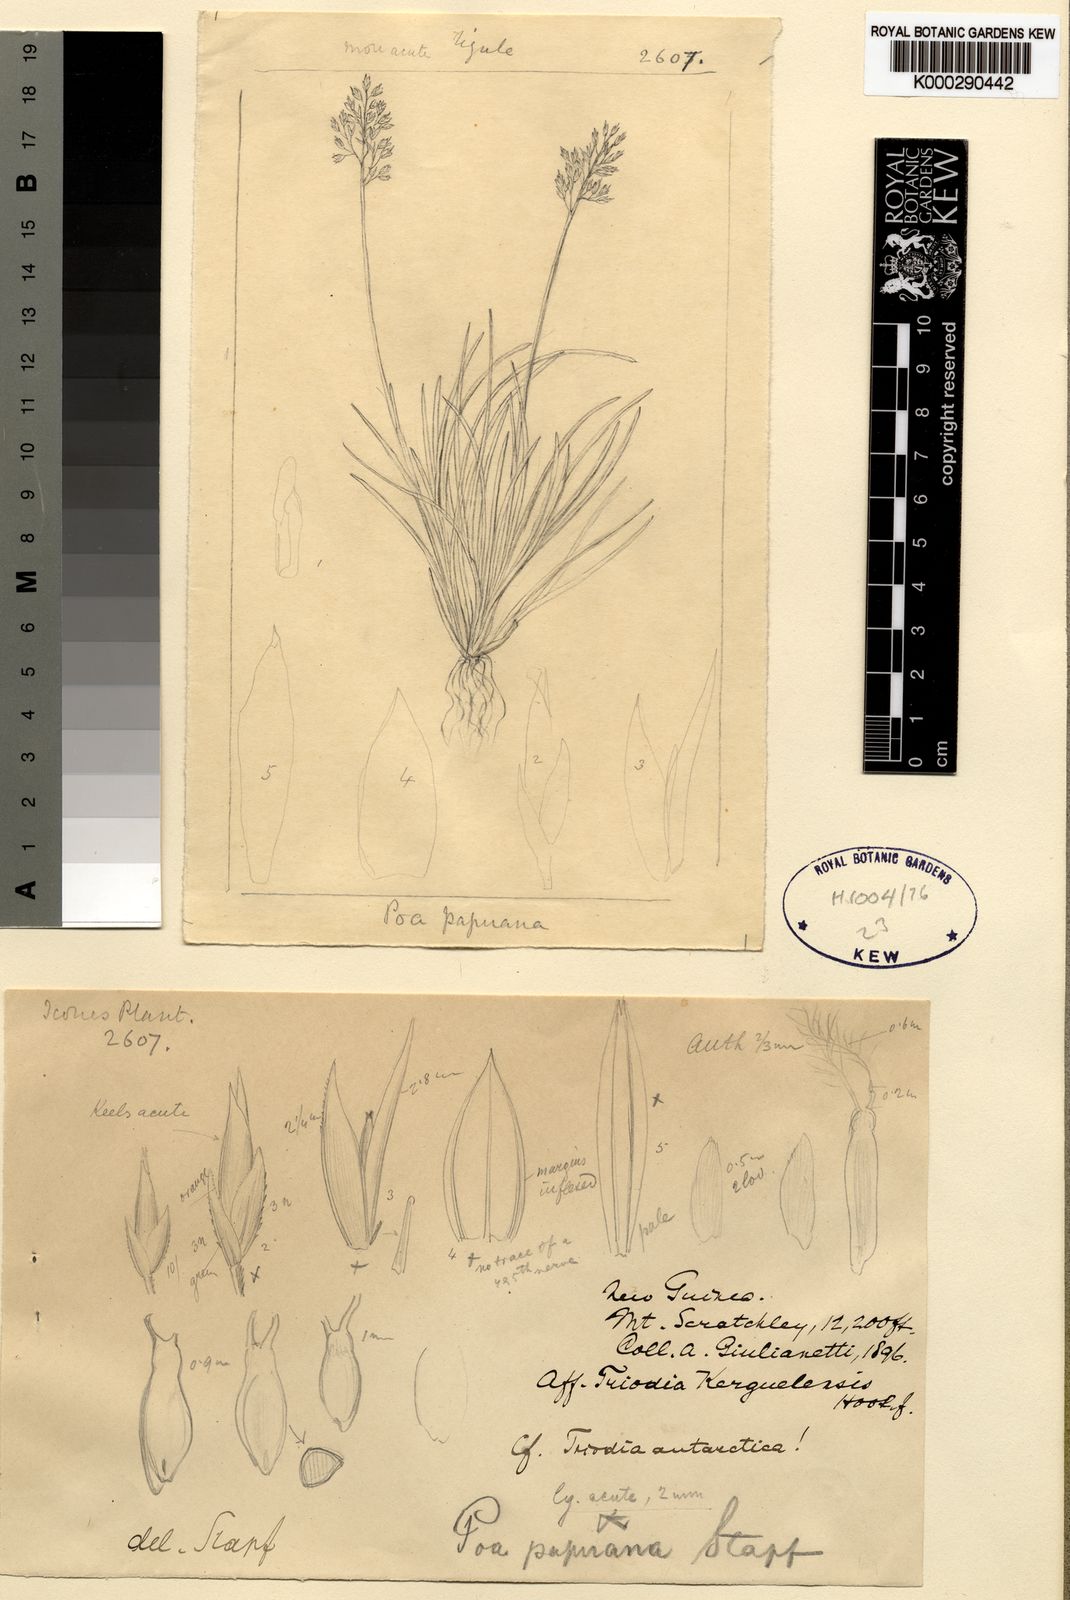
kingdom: Plantae
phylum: Tracheophyta
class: Liliopsida
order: Poales
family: Poaceae
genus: Poa
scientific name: Poa papuana
